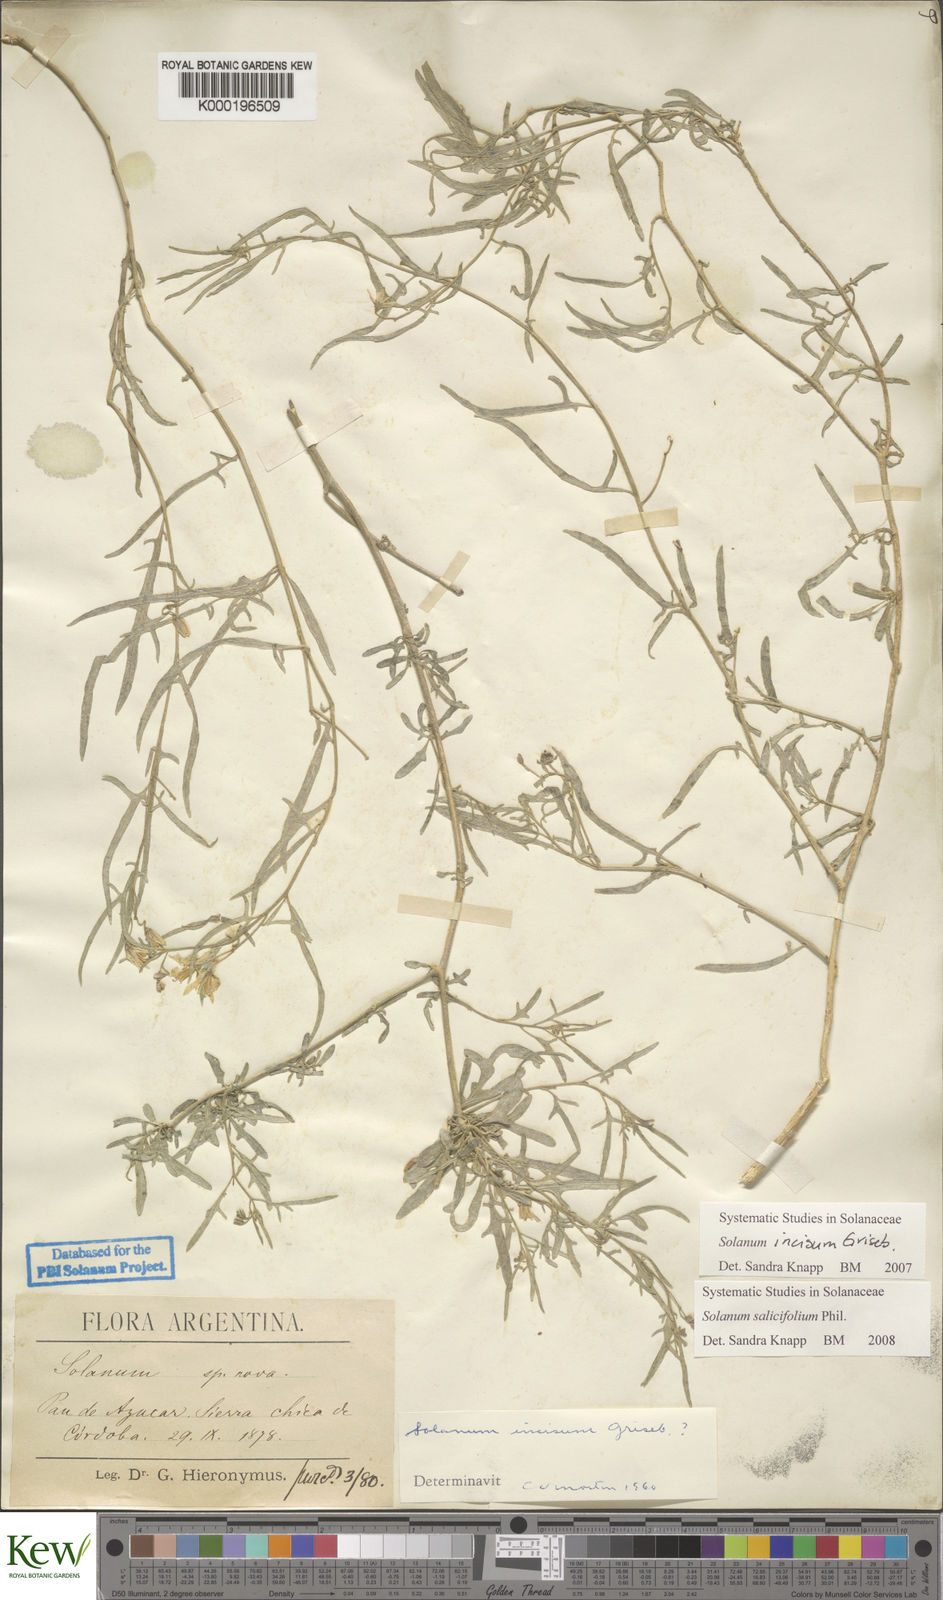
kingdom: Plantae
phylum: Tracheophyta
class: Magnoliopsida
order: Solanales
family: Solanaceae
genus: Solanum
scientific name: Solanum salicifolium
